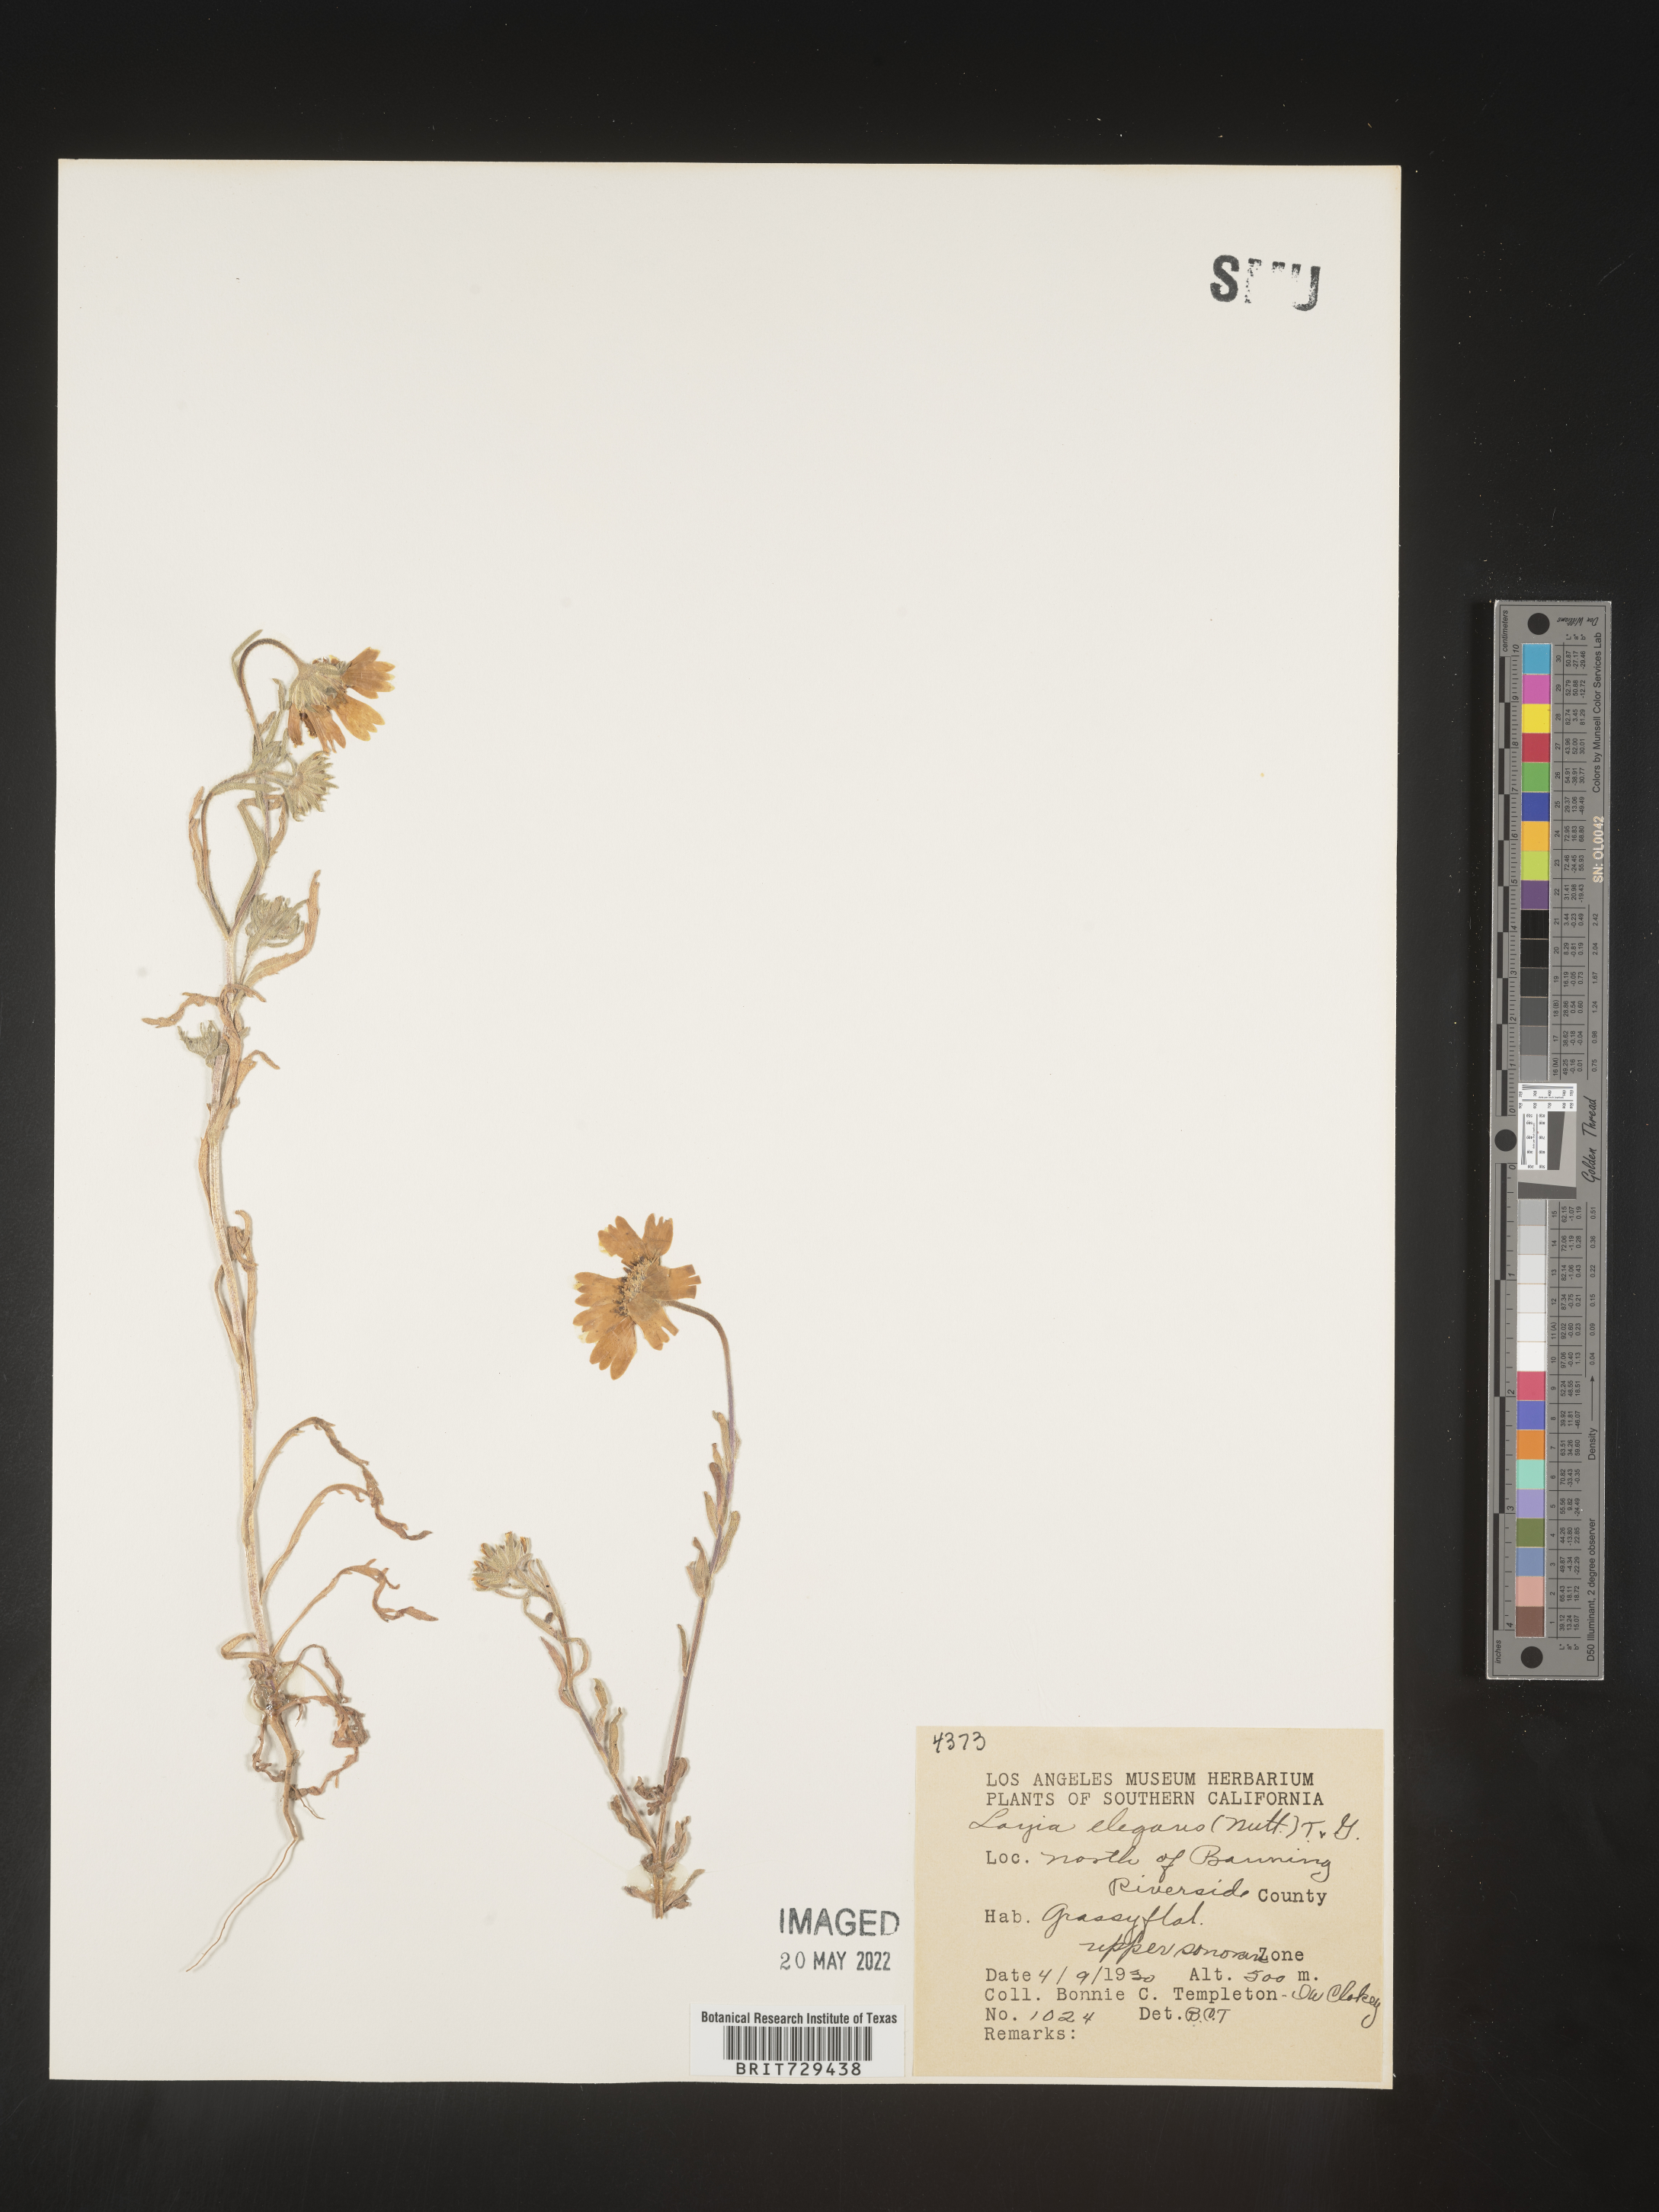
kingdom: Plantae
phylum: Tracheophyta
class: Magnoliopsida
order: Asterales
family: Asteraceae
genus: Layia
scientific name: Layia
